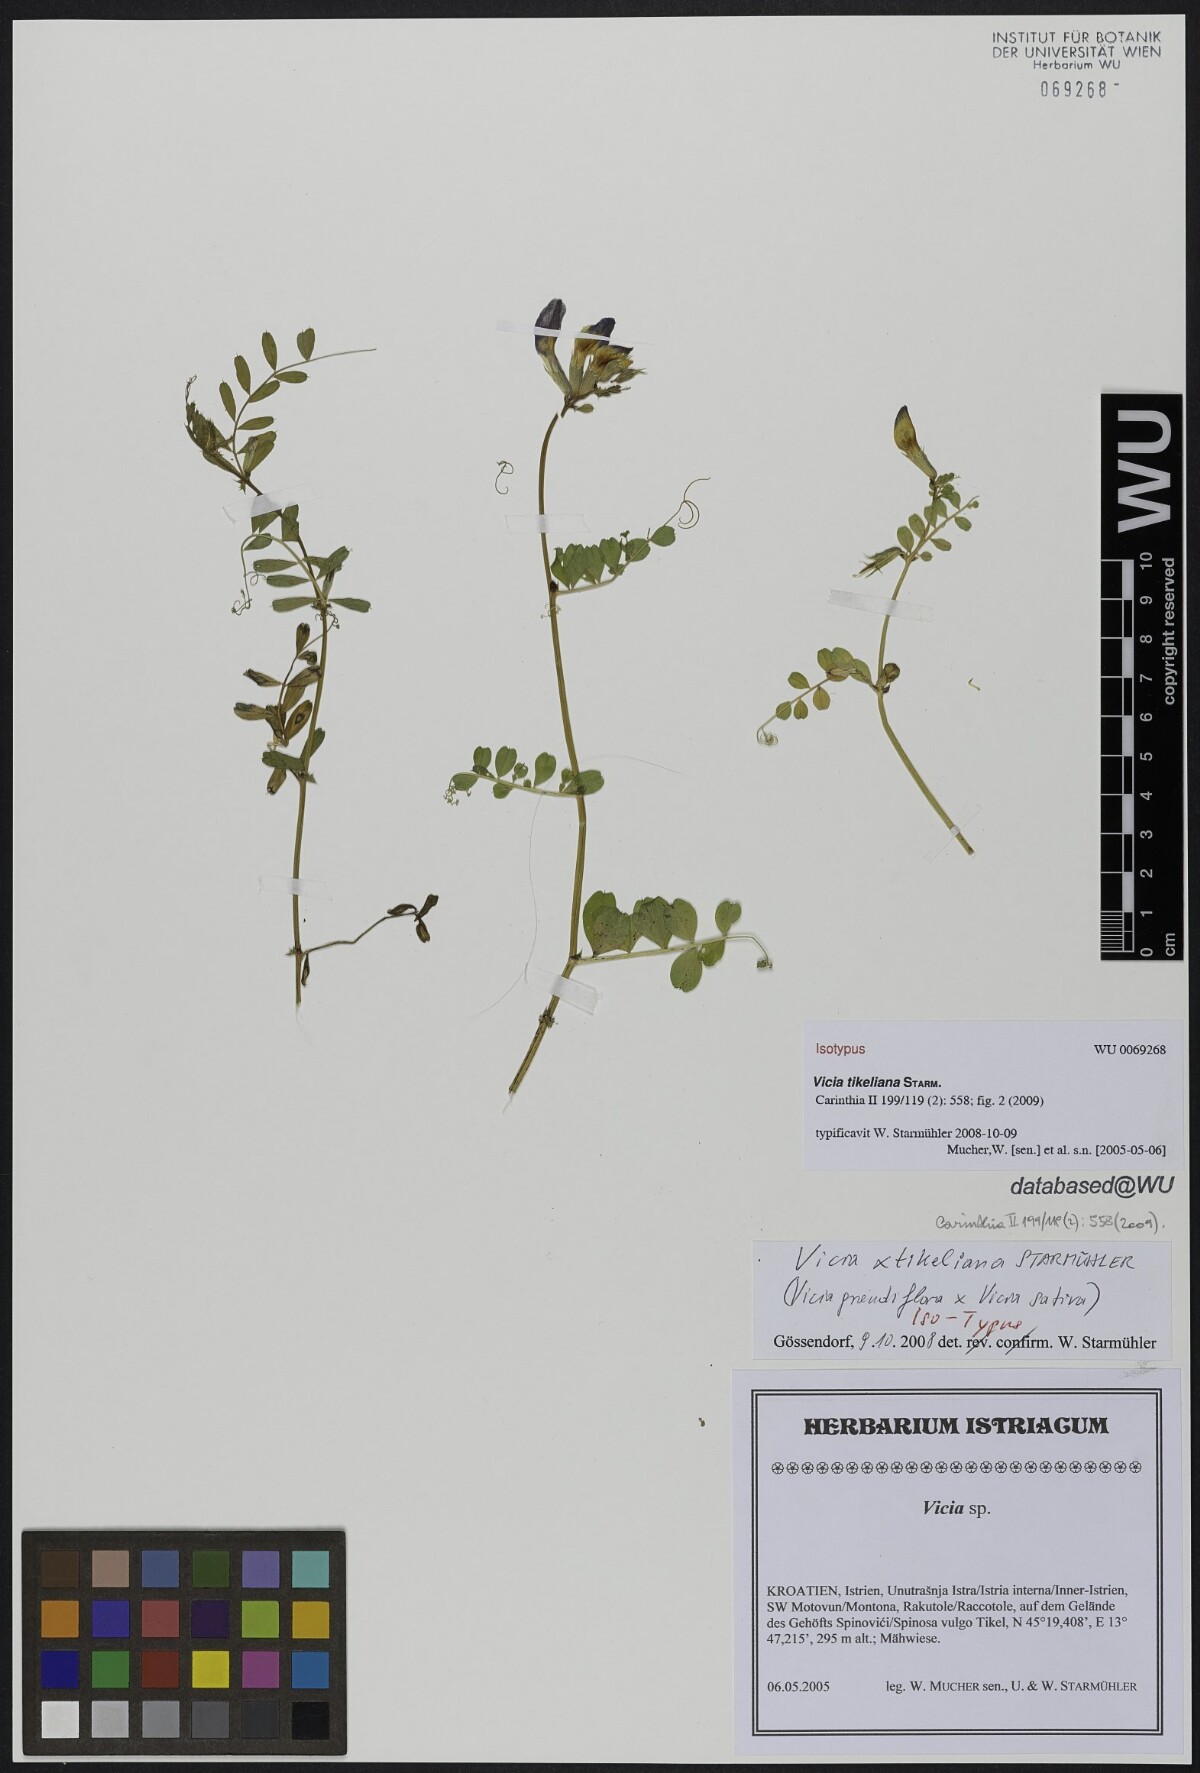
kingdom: Plantae
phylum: Tracheophyta
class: Magnoliopsida
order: Fabales
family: Fabaceae
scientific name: Fabaceae
